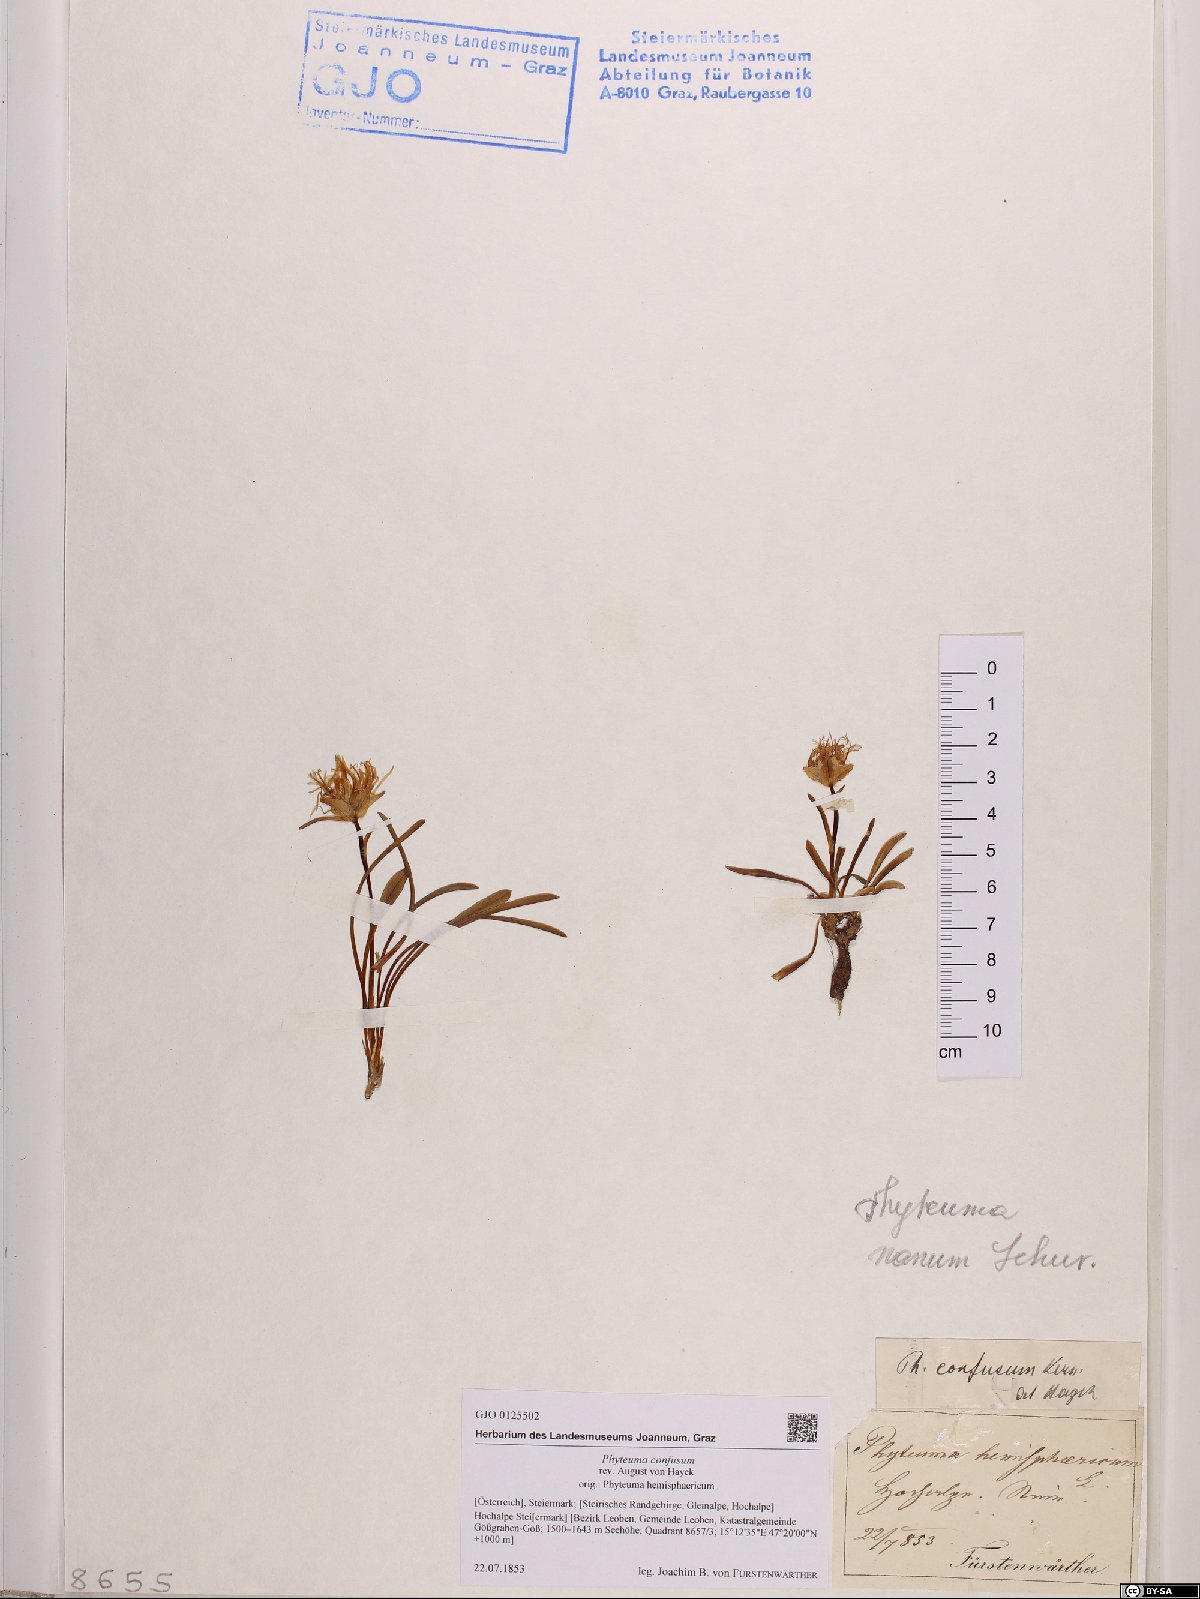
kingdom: Plantae
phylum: Tracheophyta
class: Magnoliopsida
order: Asterales
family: Campanulaceae
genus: Phyteuma
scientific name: Phyteuma confusum
